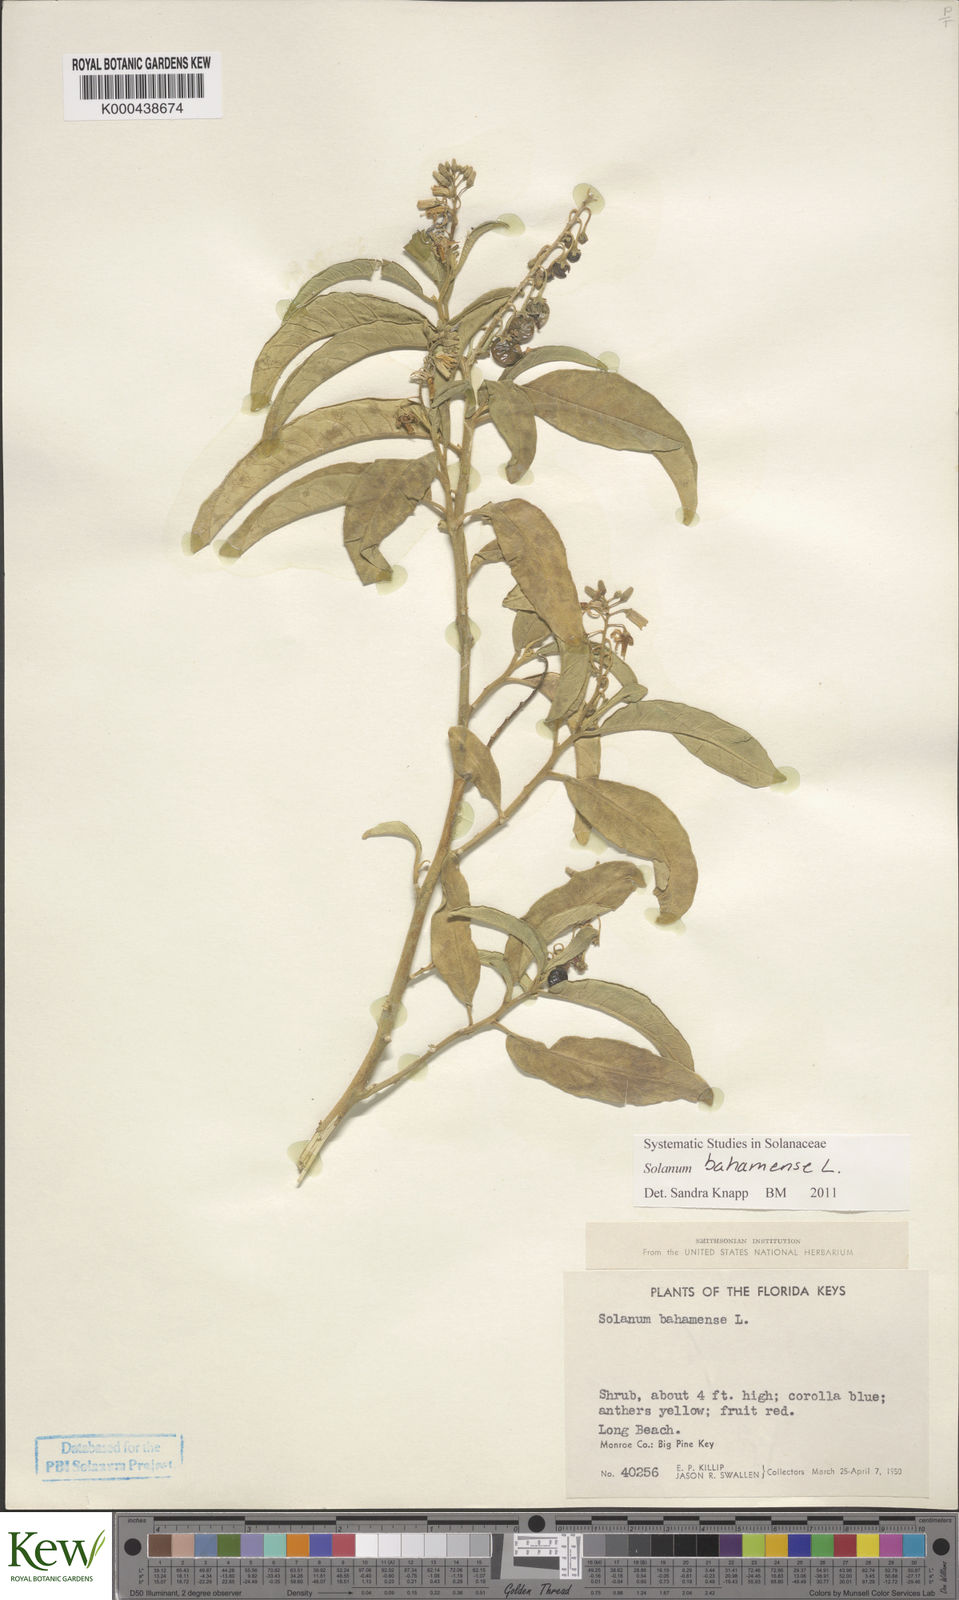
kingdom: Plantae
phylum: Tracheophyta
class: Magnoliopsida
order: Solanales
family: Solanaceae
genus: Solanum
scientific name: Solanum bahamense
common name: Canker-berry
